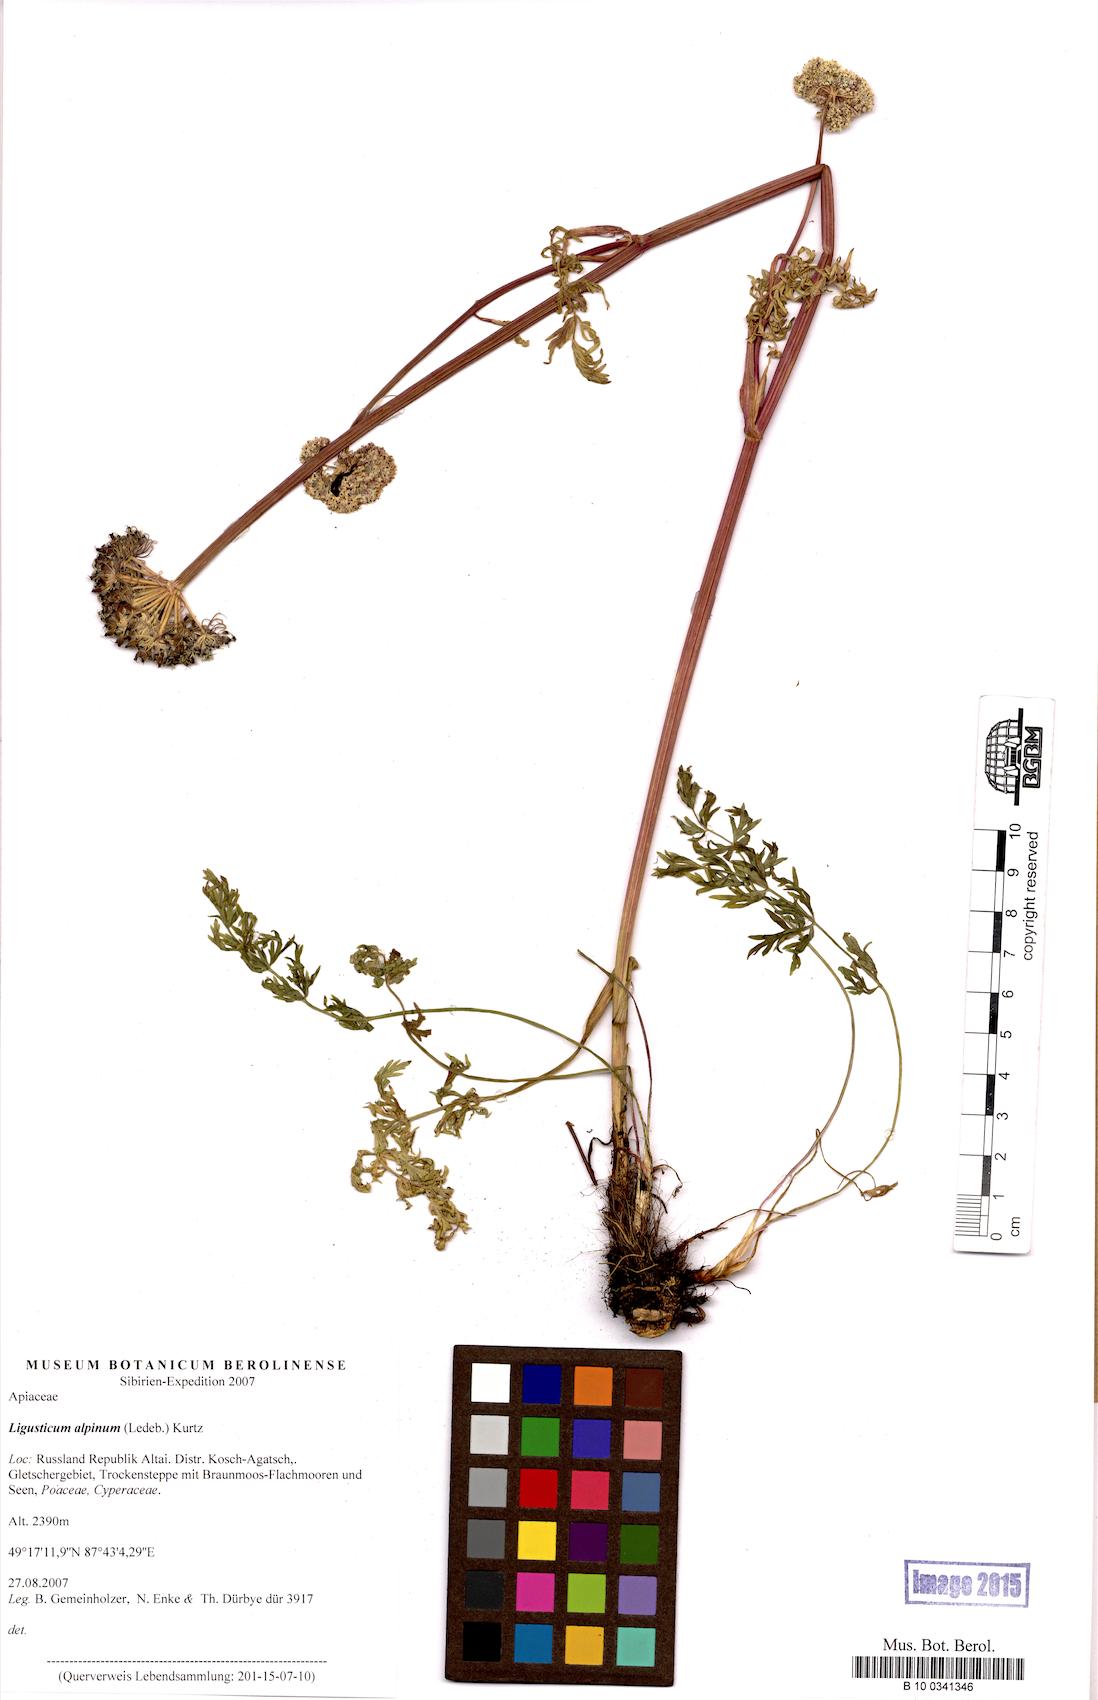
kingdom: Plantae
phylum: Tracheophyta
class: Magnoliopsida
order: Apiales
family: Apiaceae
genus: Pachypleurum
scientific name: Pachypleurum mutellinoides
